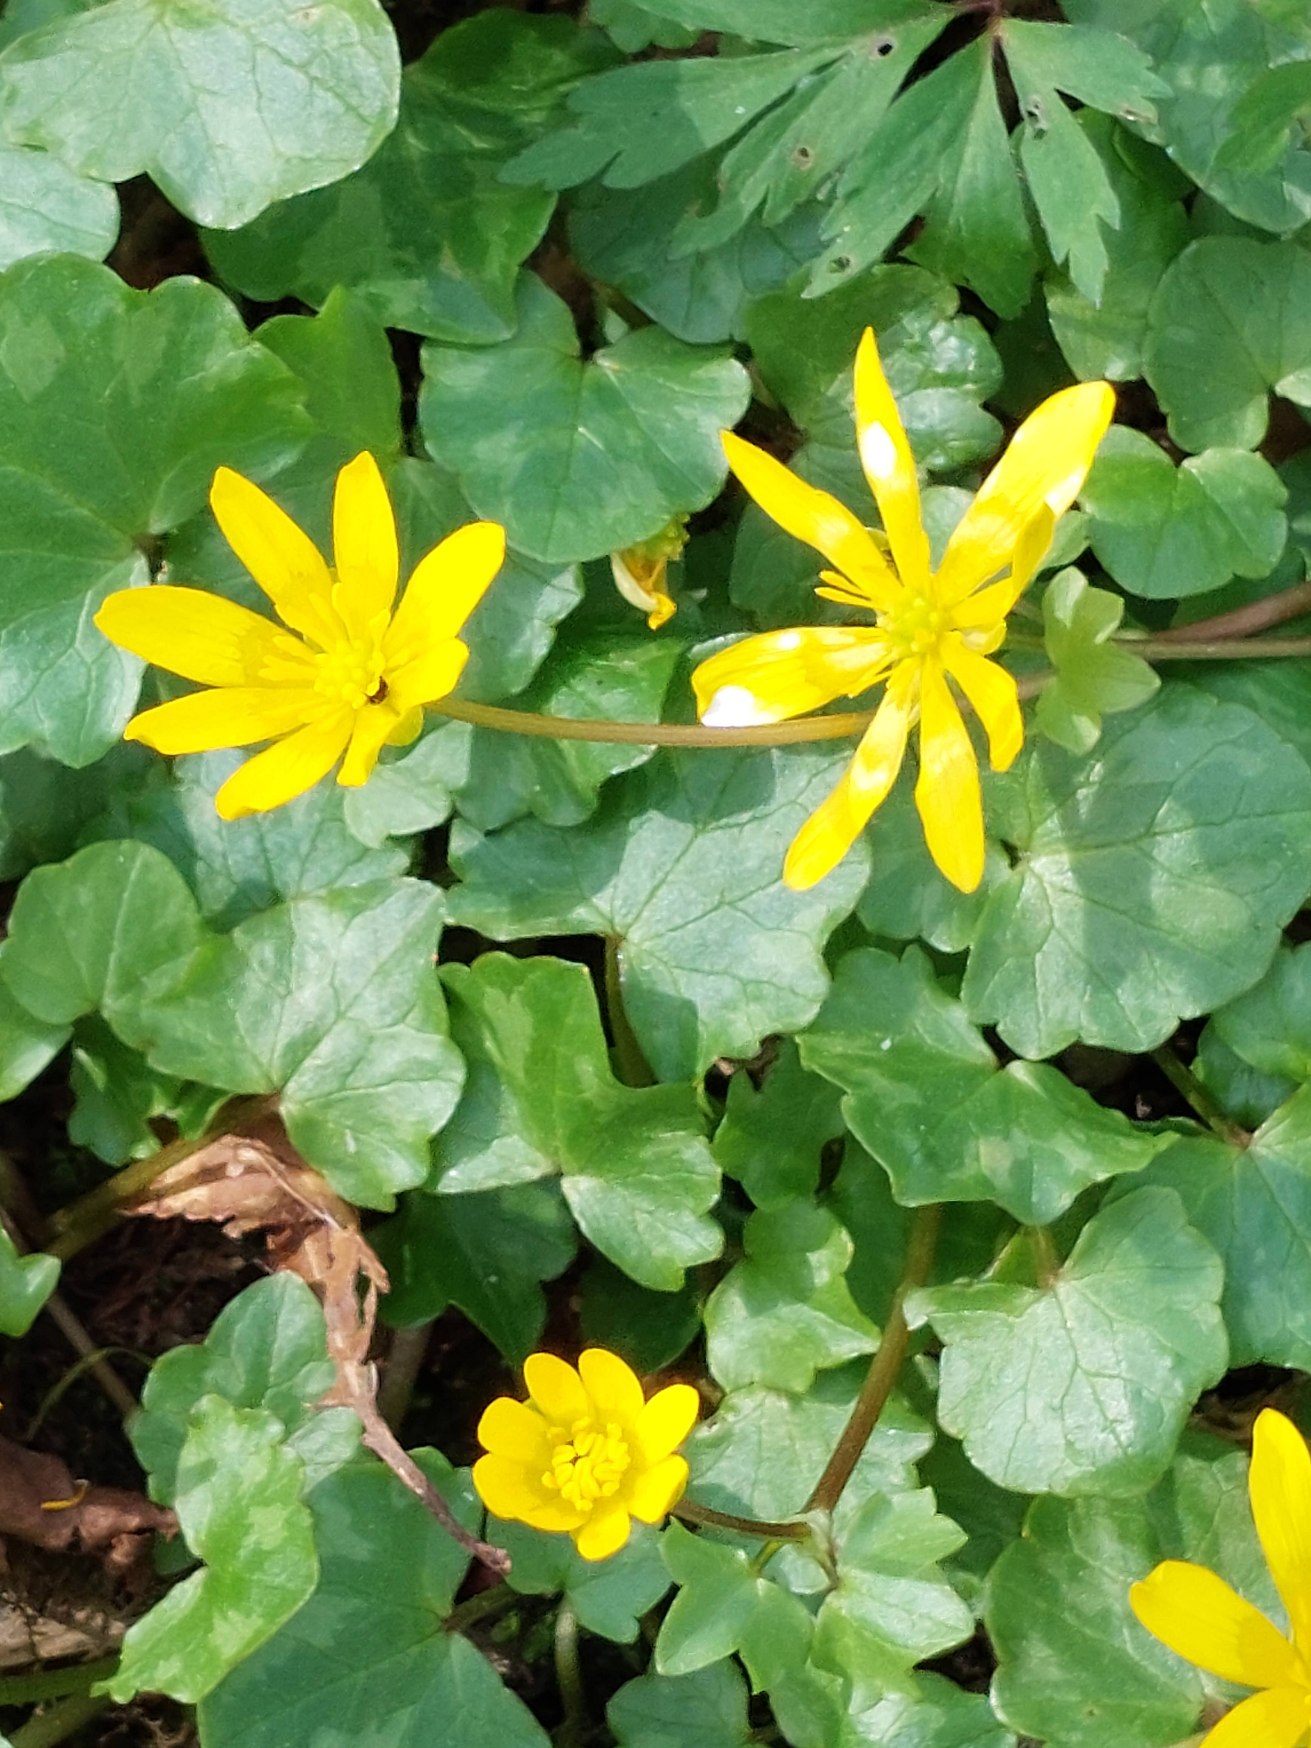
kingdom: Plantae
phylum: Tracheophyta
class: Magnoliopsida
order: Ranunculales
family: Ranunculaceae
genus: Ficaria
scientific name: Ficaria verna
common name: Vorterod
